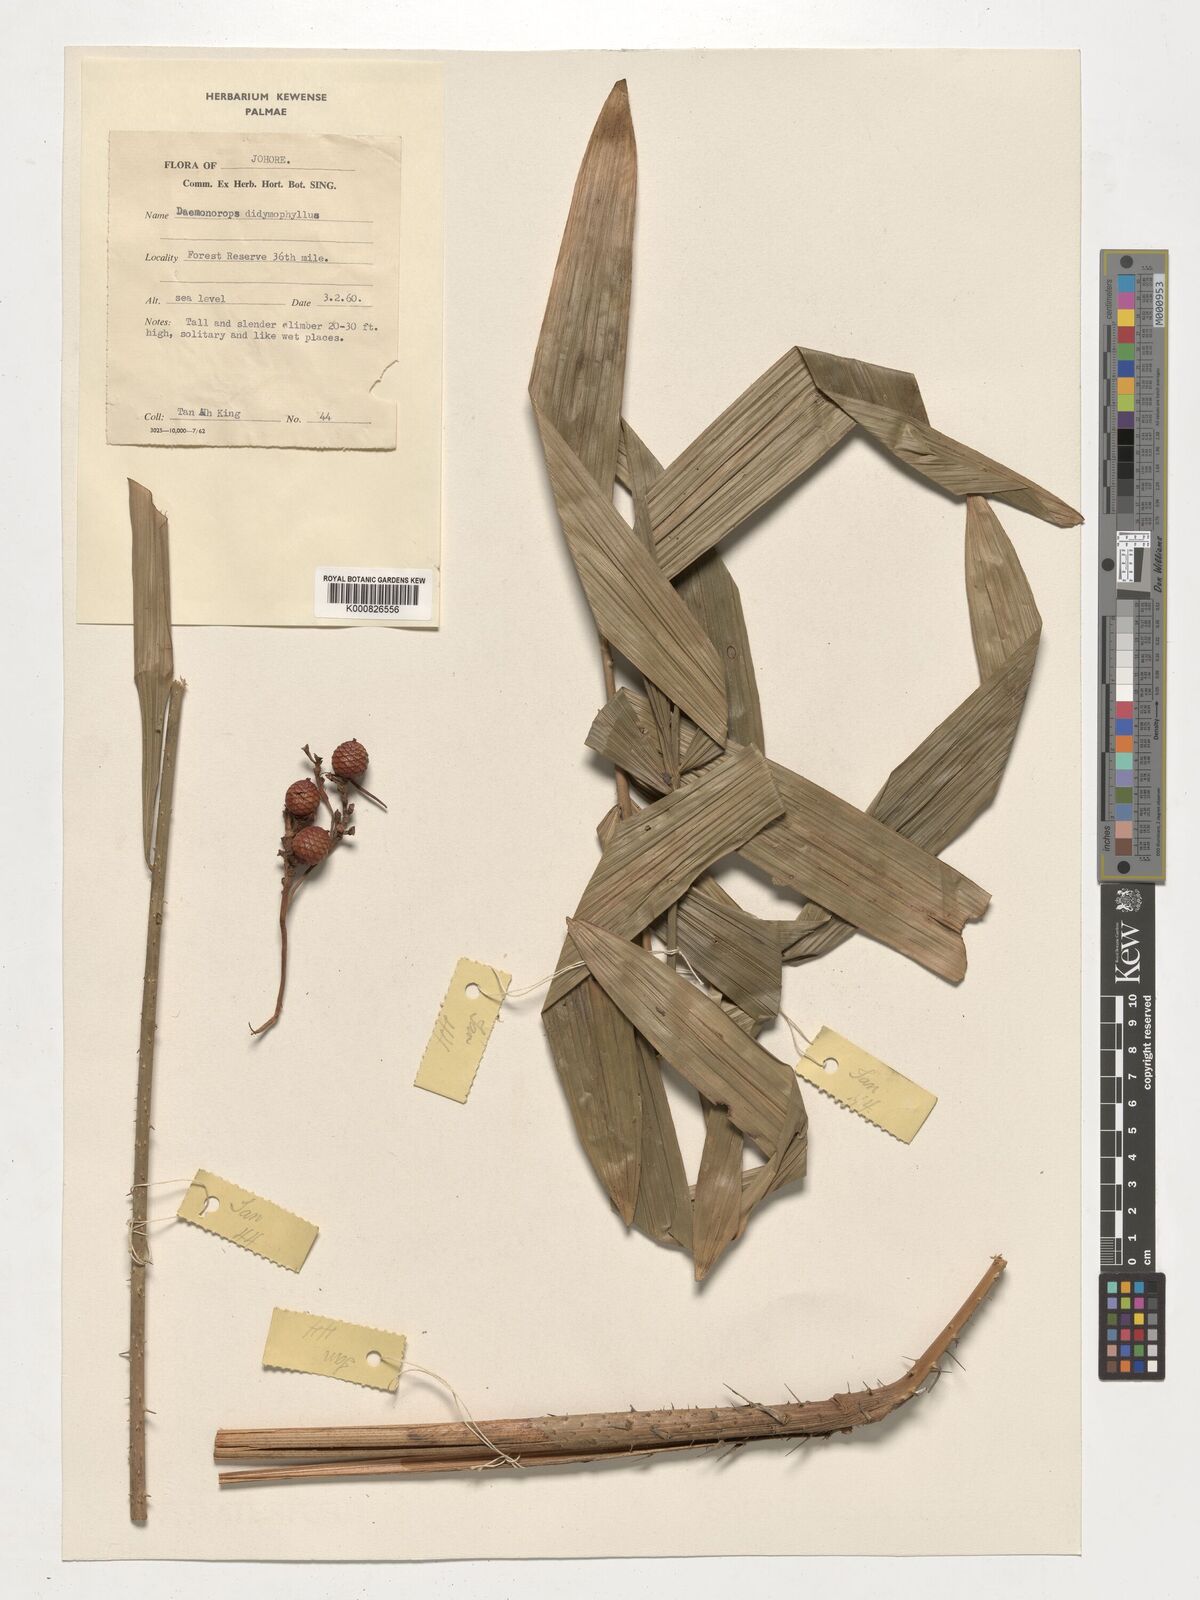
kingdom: Plantae
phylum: Tracheophyta
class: Liliopsida
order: Arecales
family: Arecaceae
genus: Calamus
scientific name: Calamus gracilipes
